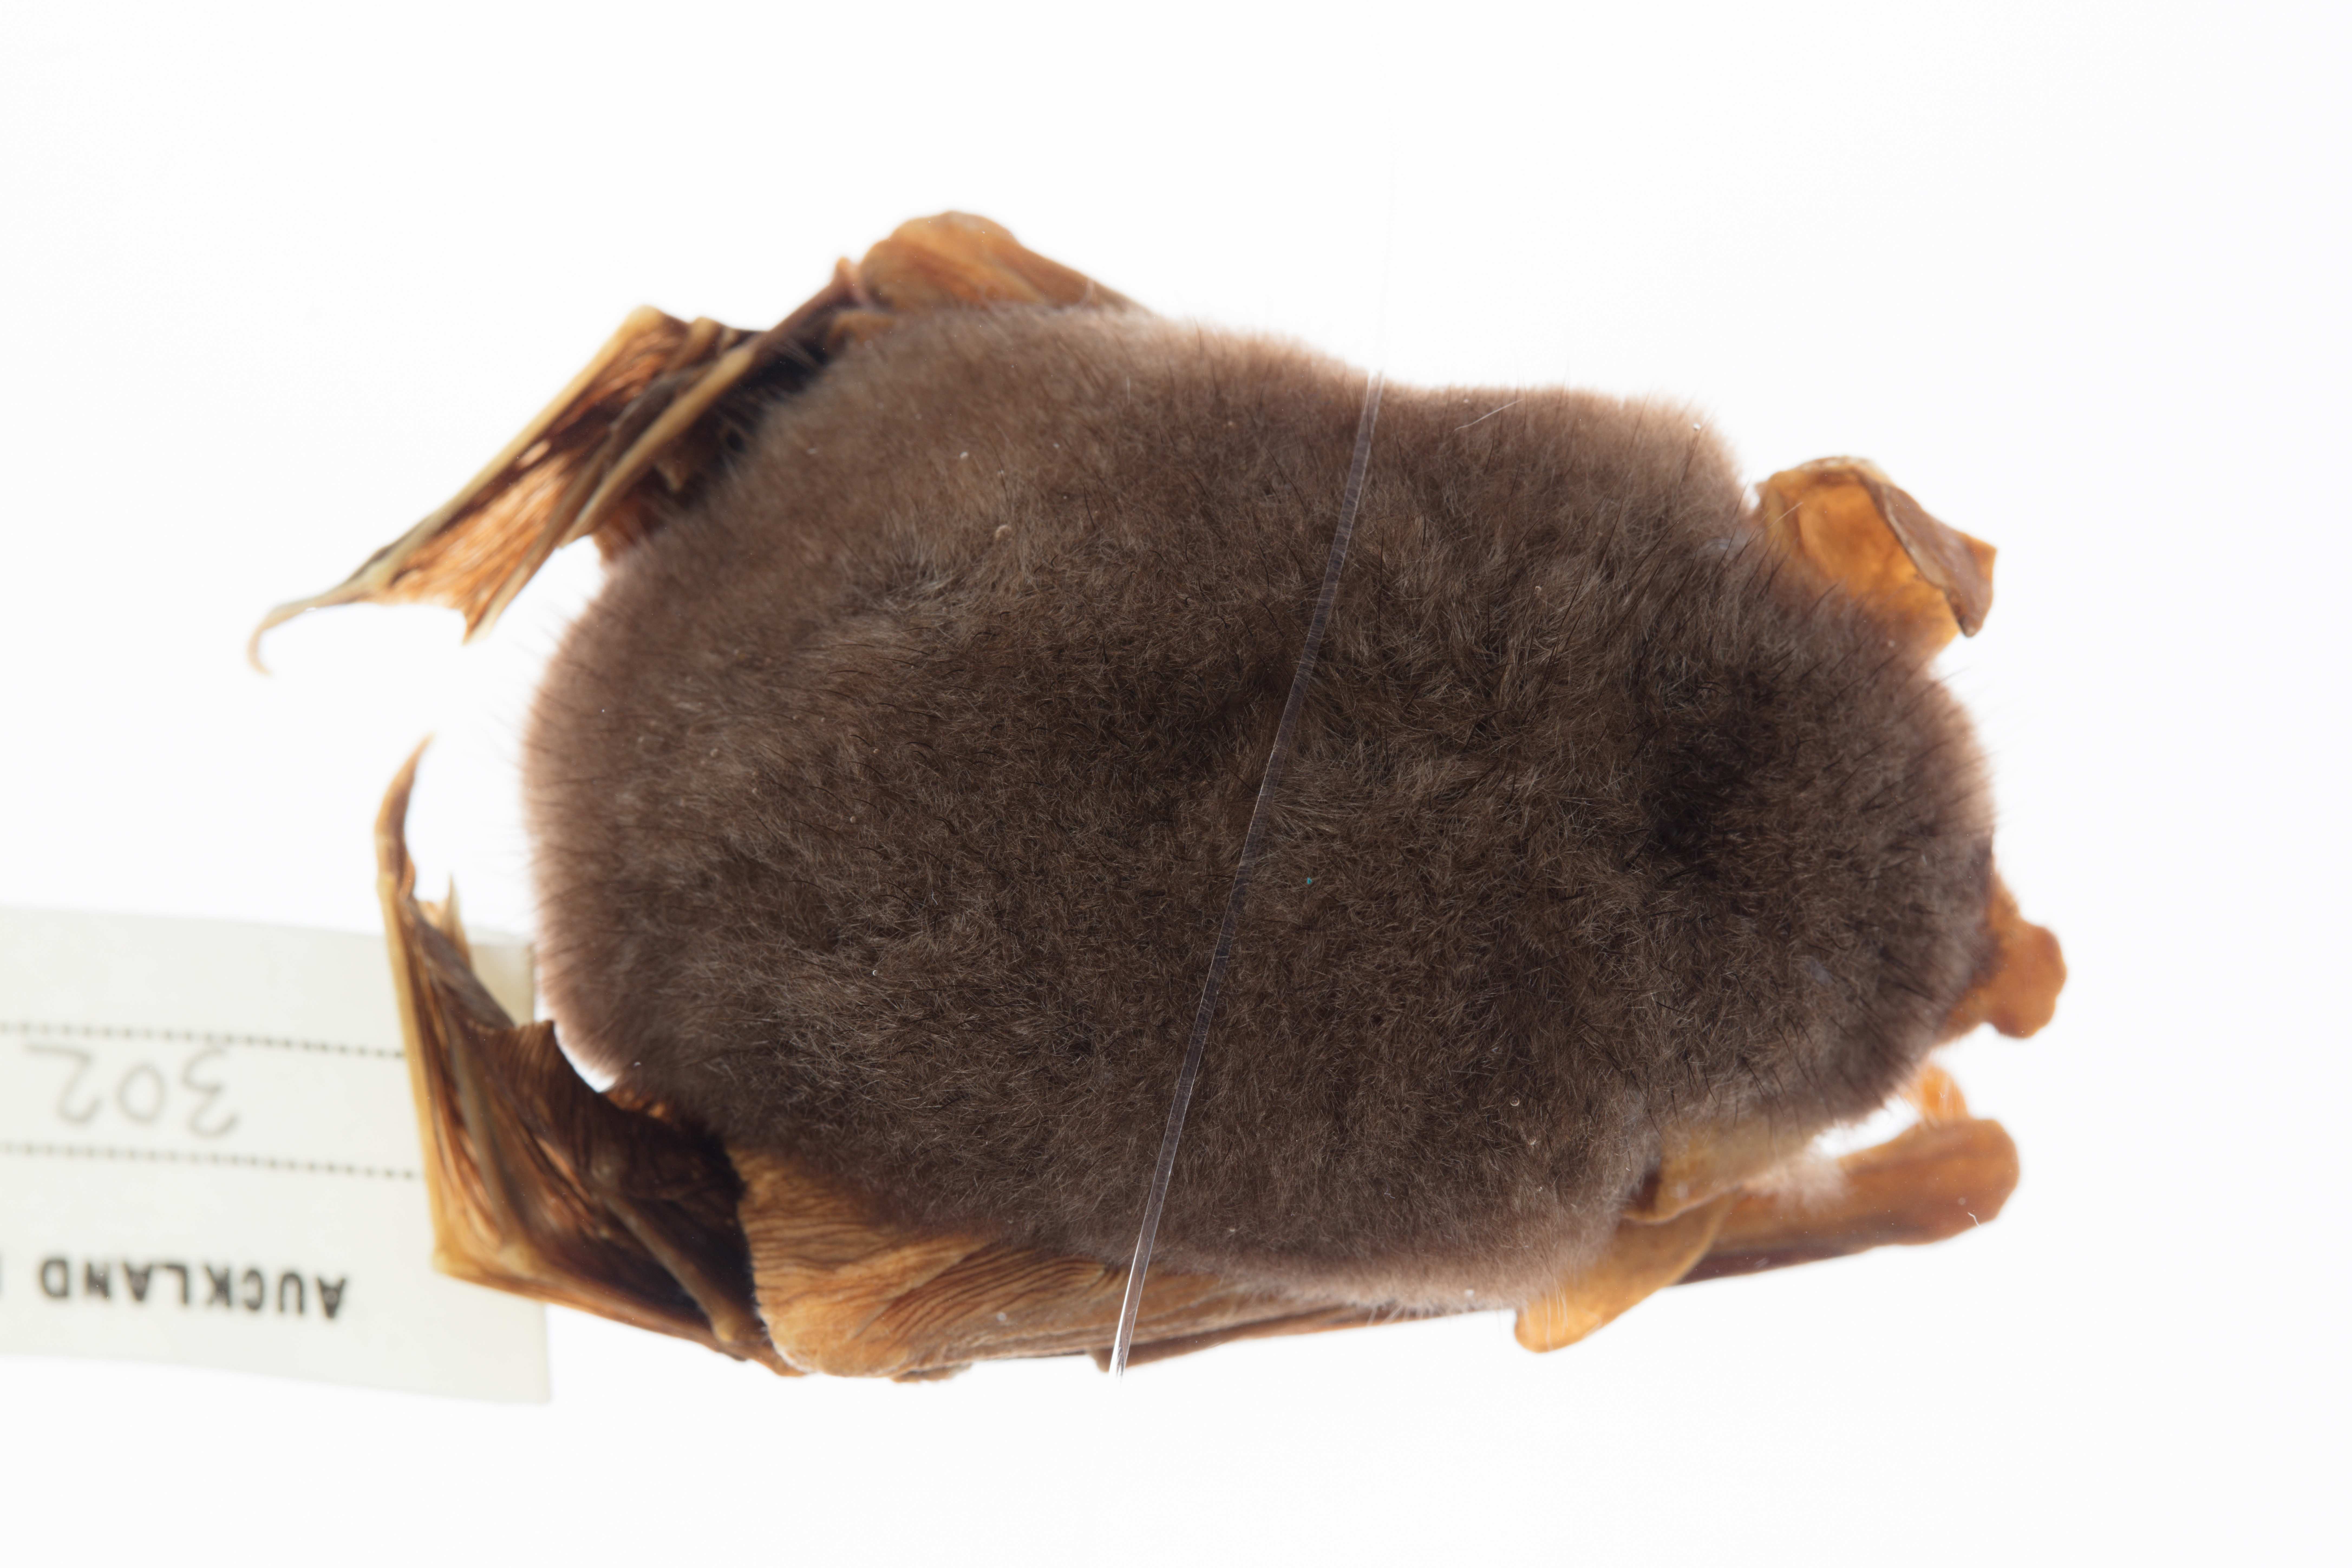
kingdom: Animalia
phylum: Chordata
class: Mammalia
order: Chiroptera
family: Mystacinidae
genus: Mystacina
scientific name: Mystacina tuberculata
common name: New zealand lesser short-tailed bat
